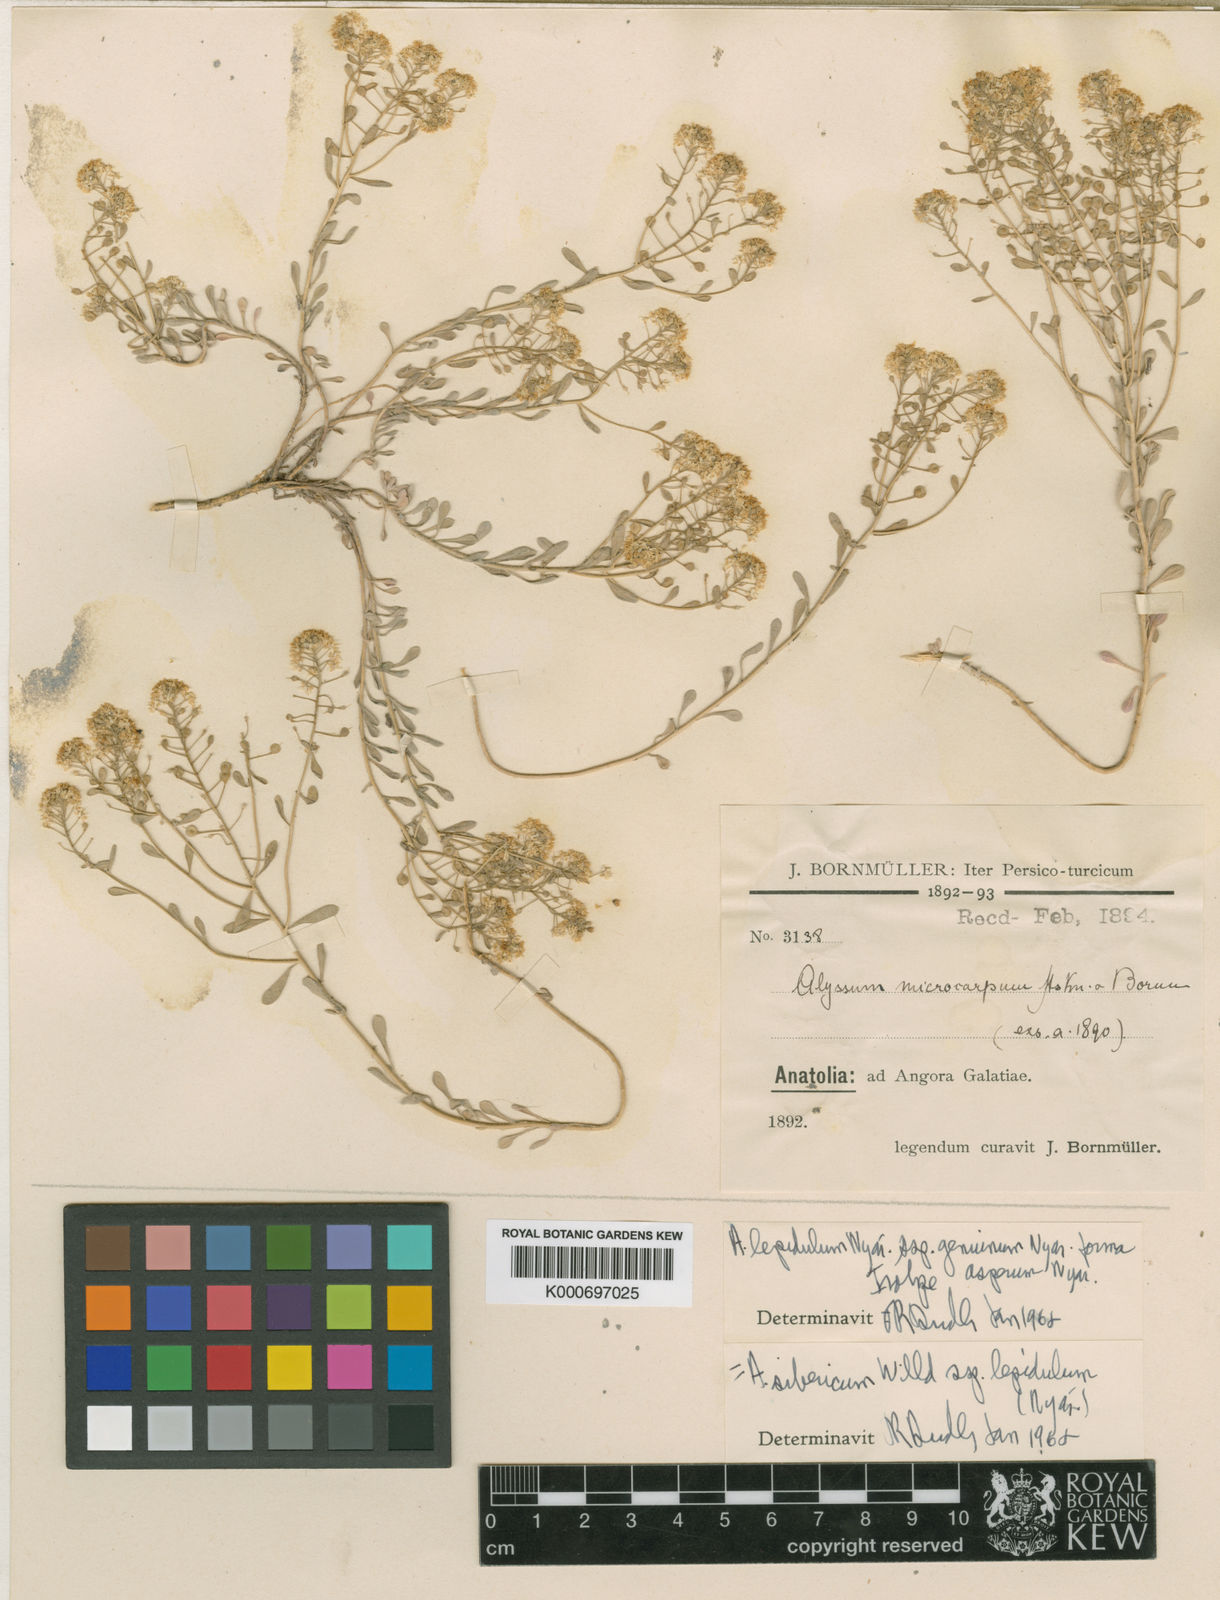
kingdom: Plantae
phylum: Tracheophyta
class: Magnoliopsida
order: Brassicales
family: Brassicaceae
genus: Odontarrhena
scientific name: Odontarrhena sibirica
